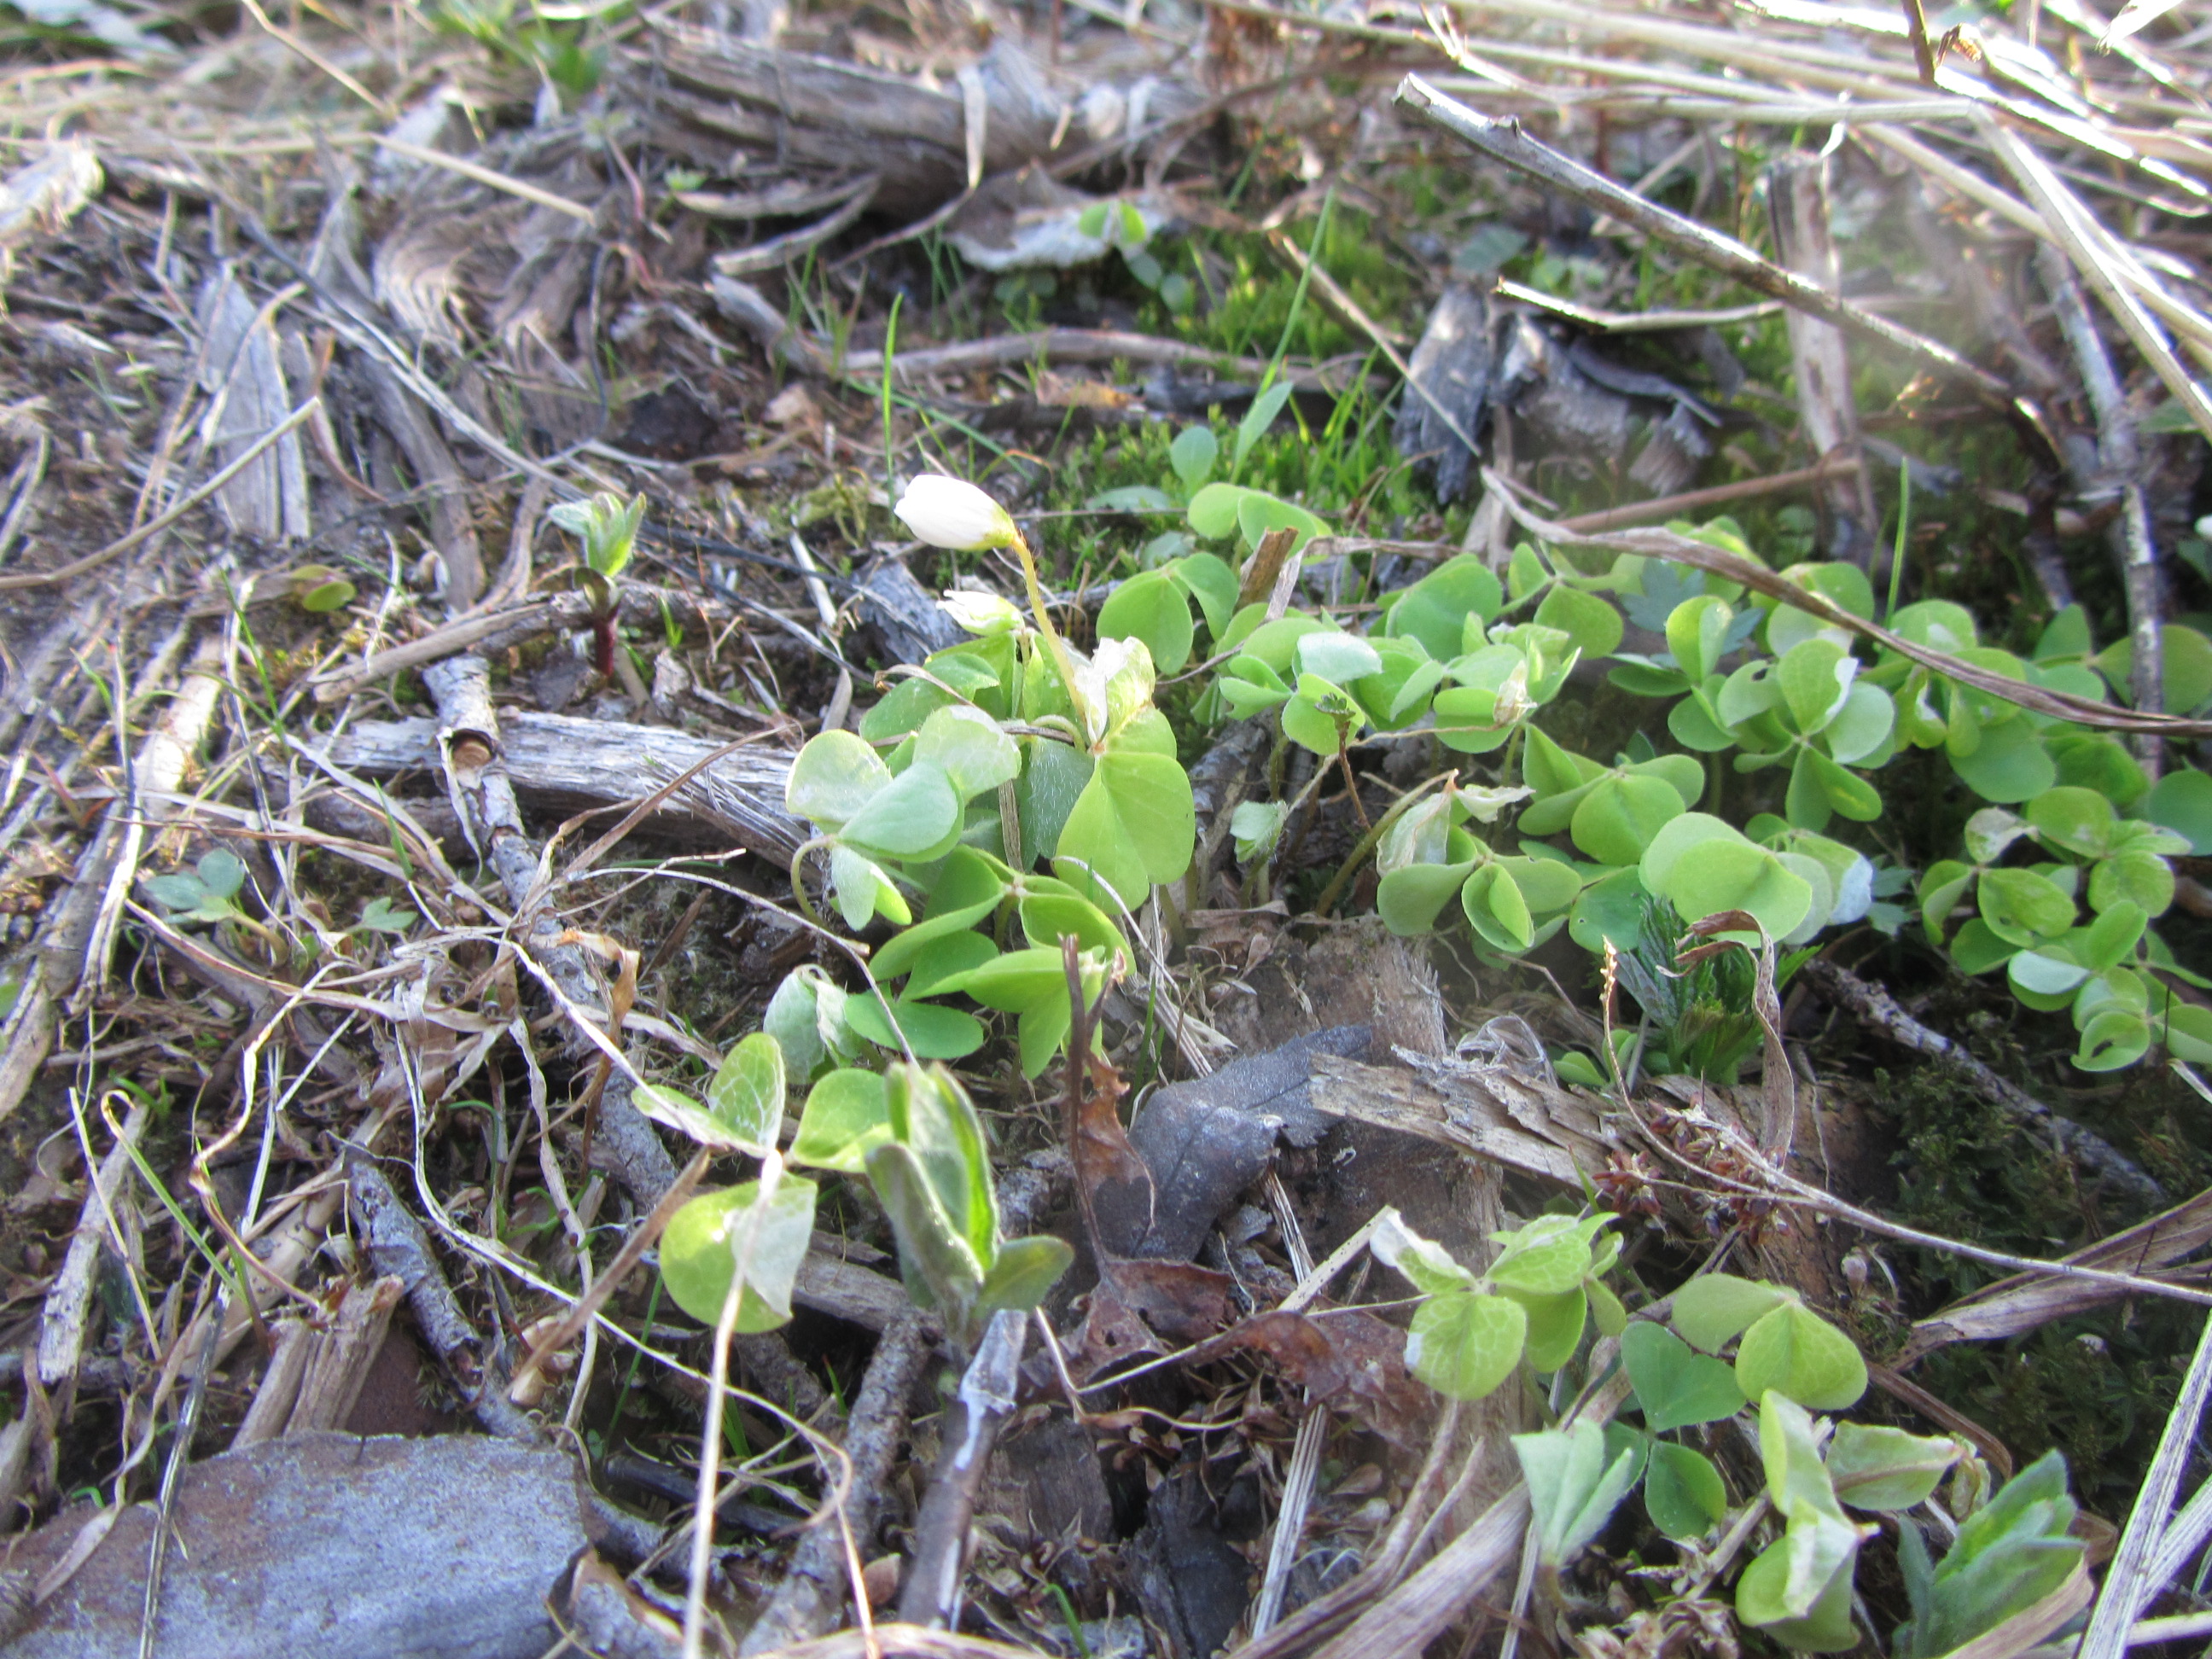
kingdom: Plantae
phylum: Tracheophyta
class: Magnoliopsida
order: Oxalidales
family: Oxalidaceae
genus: Oxalis
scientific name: Oxalis acetosella
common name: Wood-sorrel
